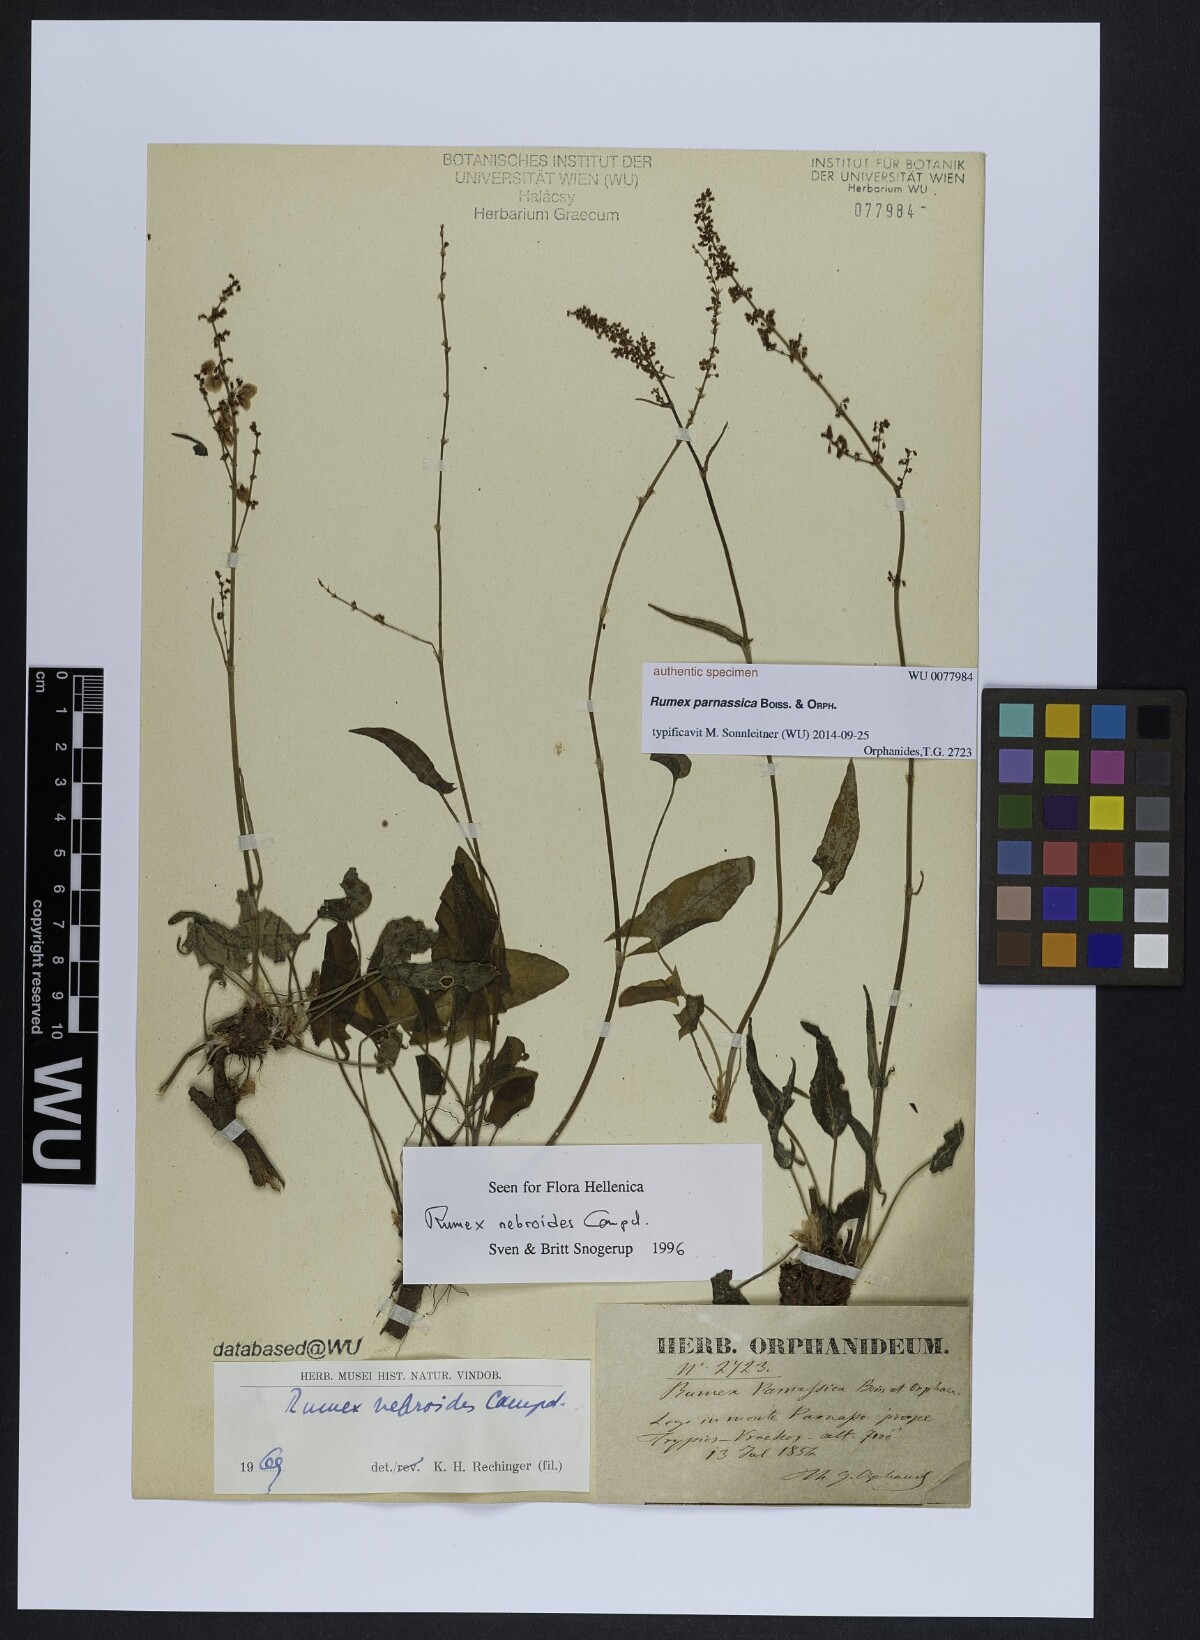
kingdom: Plantae
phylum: Tracheophyta
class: Magnoliopsida
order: Caryophyllales
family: Polygonaceae
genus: Rumex
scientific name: Rumex
